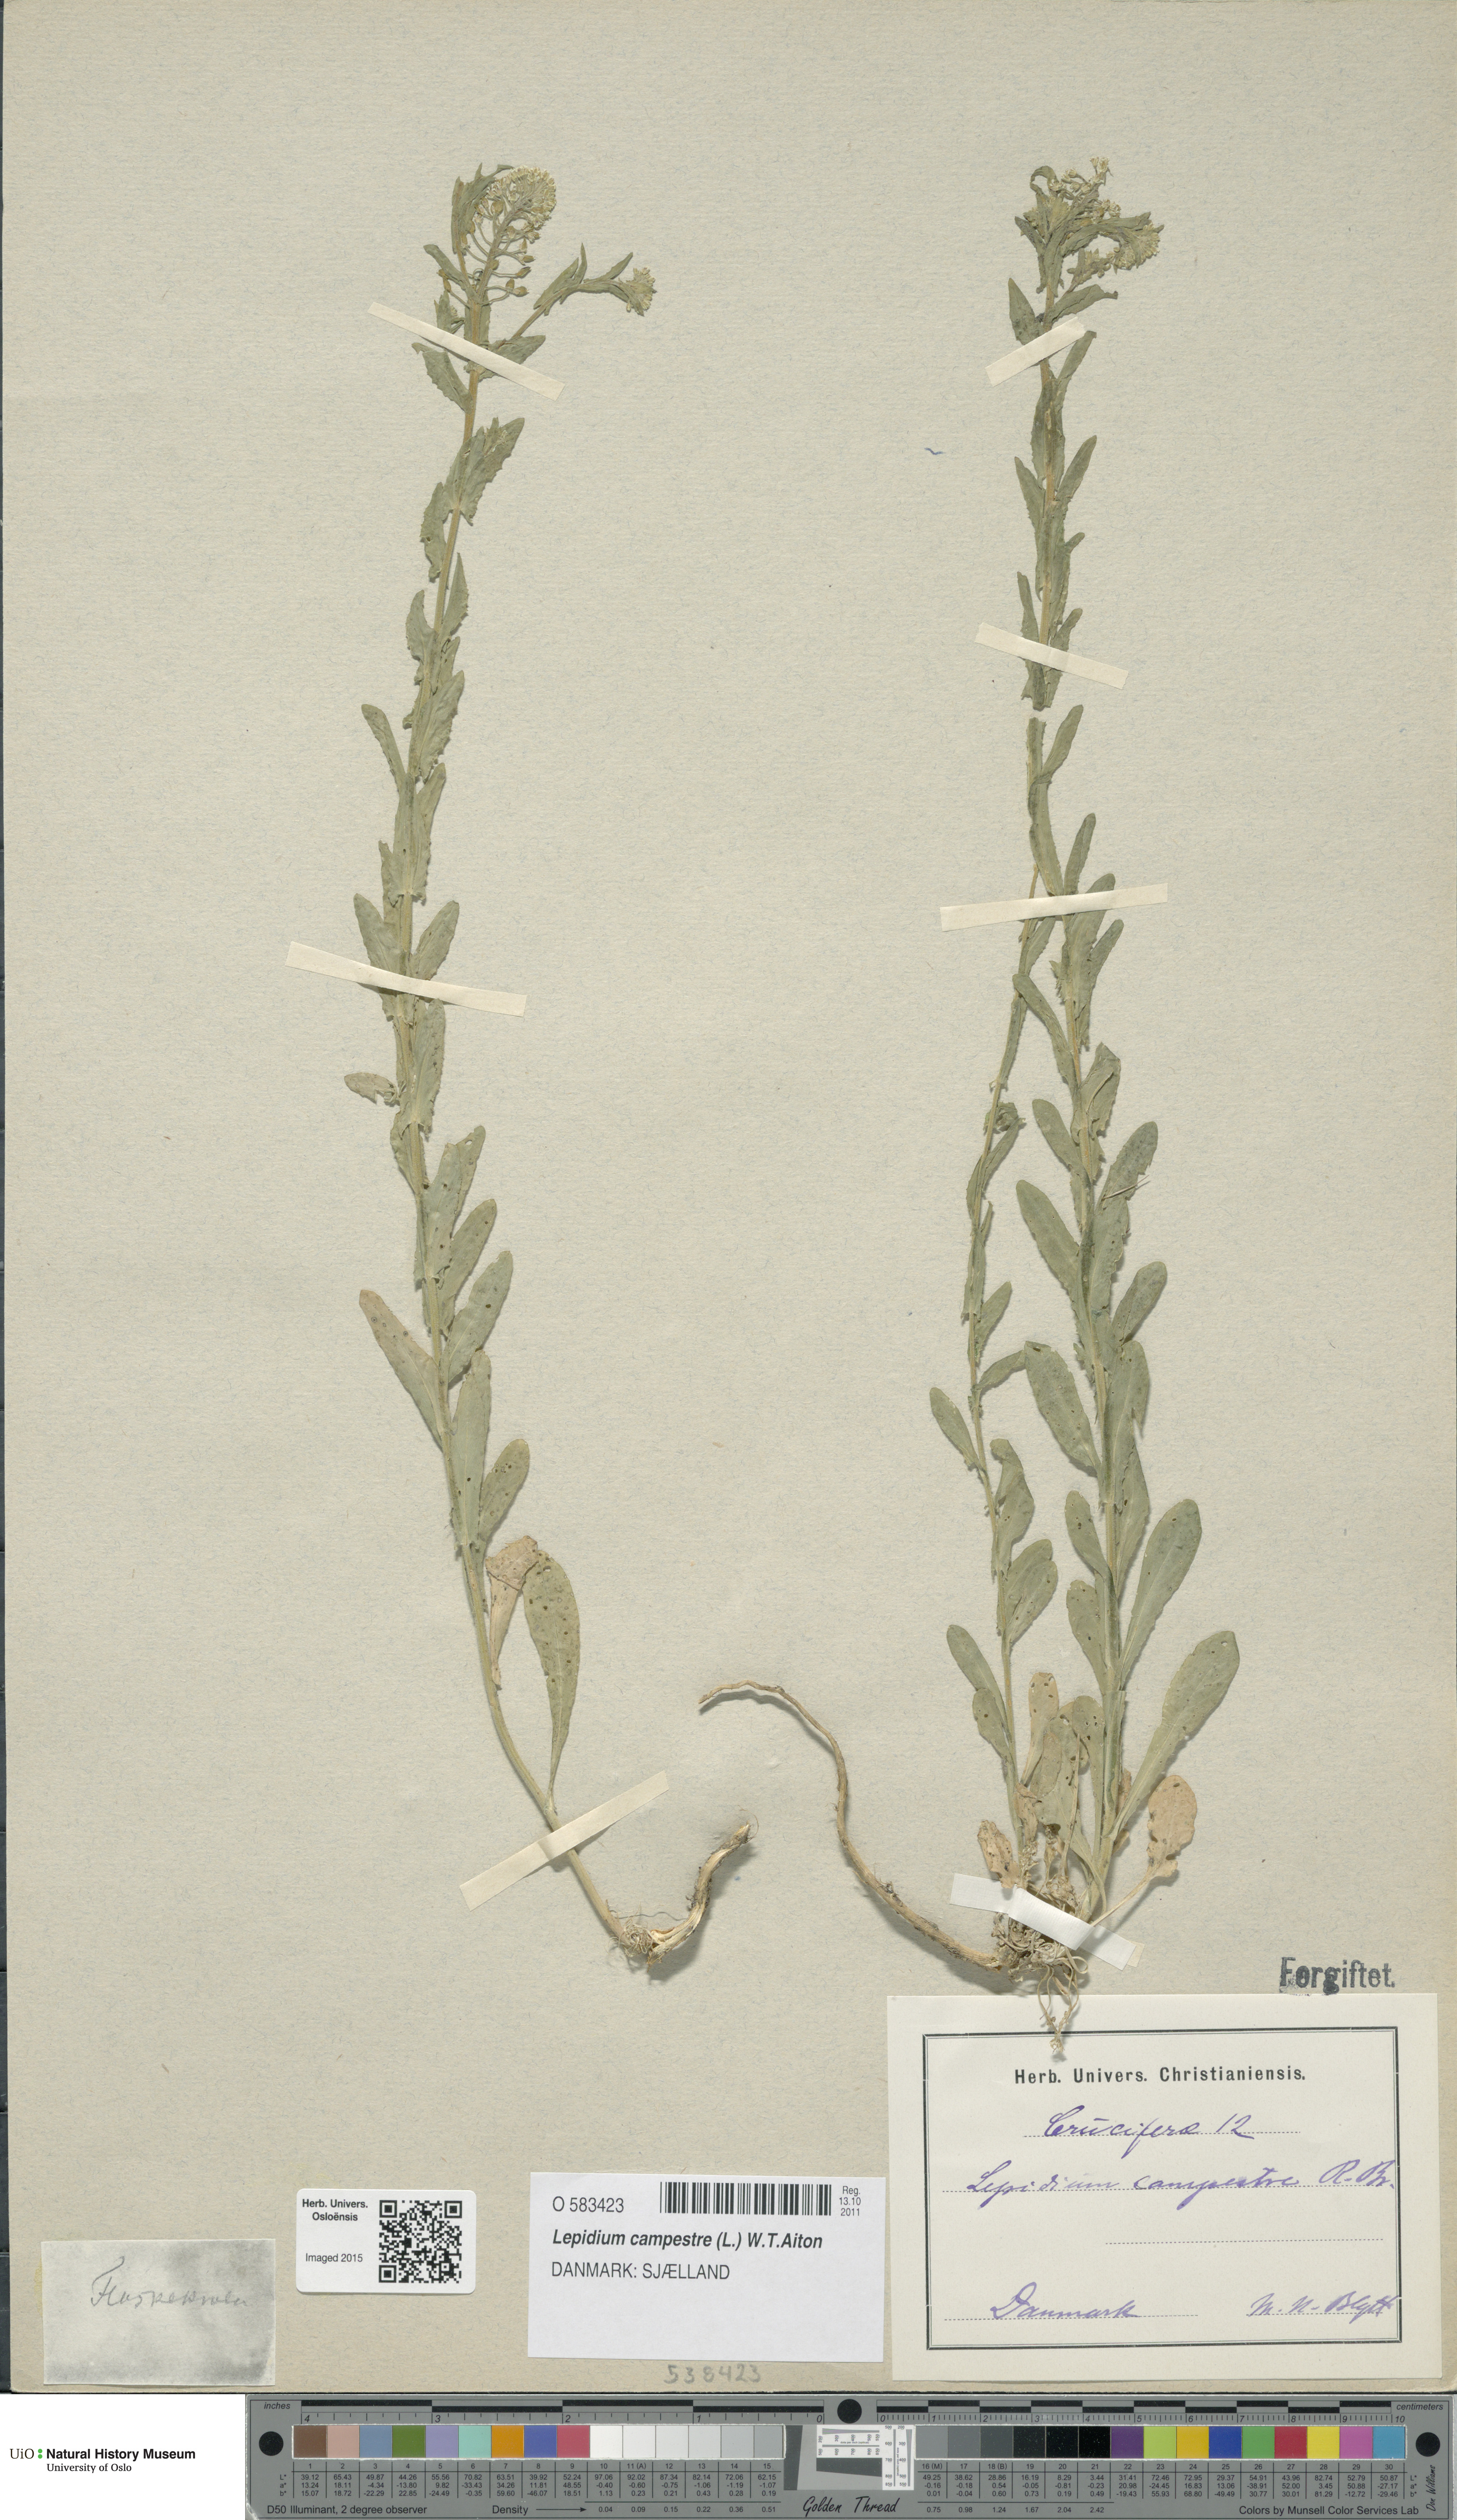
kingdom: Plantae
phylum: Tracheophyta
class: Magnoliopsida
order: Brassicales
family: Brassicaceae
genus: Lepidium
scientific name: Lepidium campestre
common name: Field pepperwort
